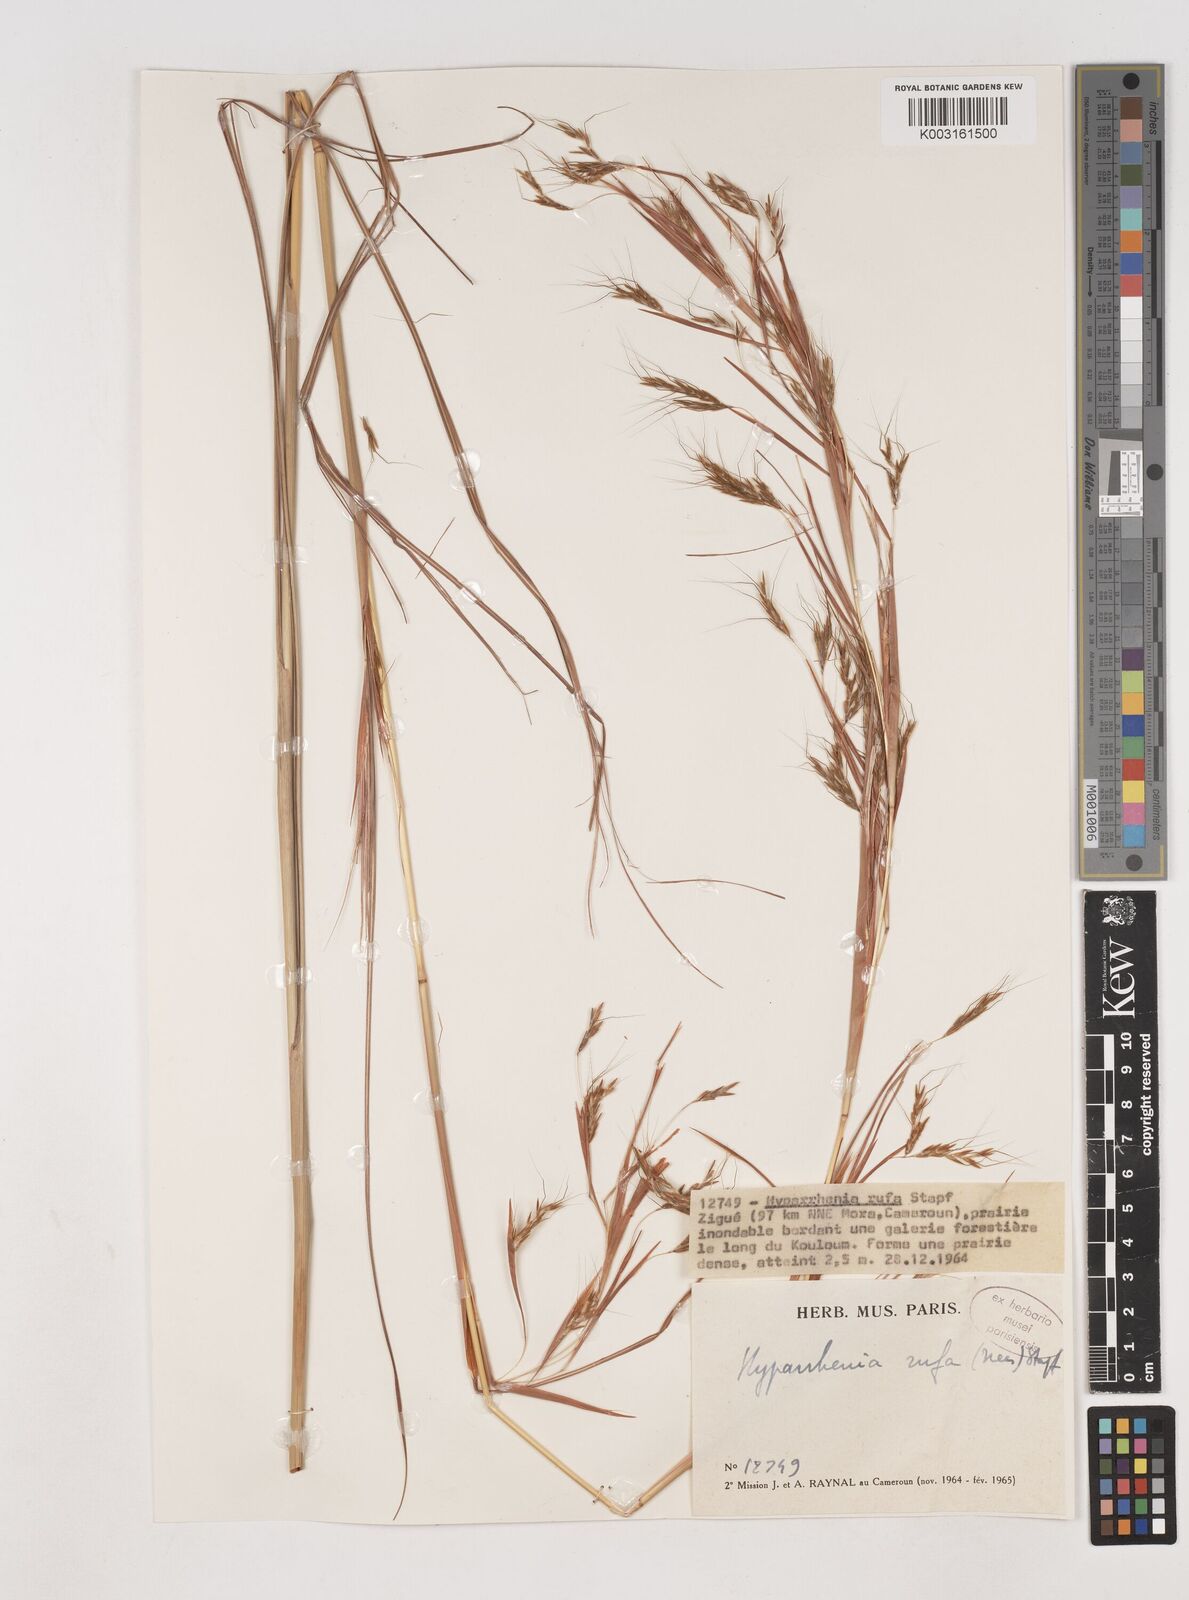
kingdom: Plantae
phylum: Tracheophyta
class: Liliopsida
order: Poales
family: Poaceae
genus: Hyparrhenia
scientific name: Hyparrhenia rufa
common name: Jaraguagrass
